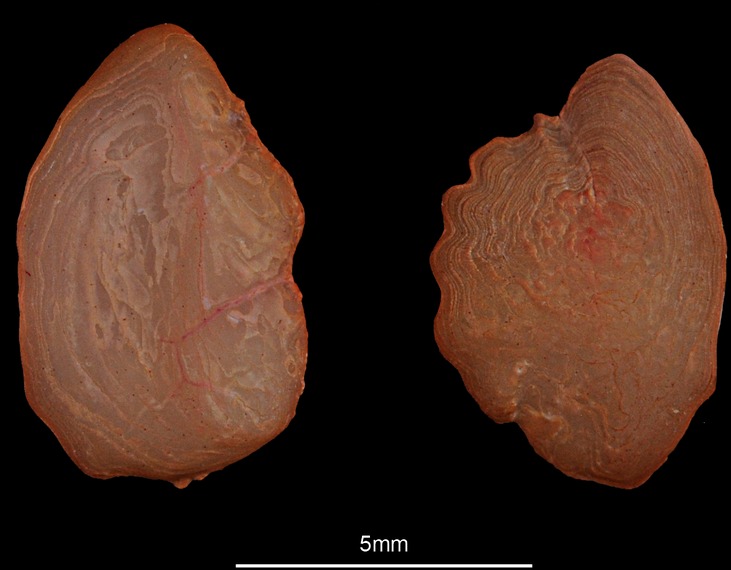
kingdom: Animalia
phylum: Chordata
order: Pleuronectiformes
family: Scophthalmidae
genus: Lepidorhombus
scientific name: Lepidorhombus whiffiagonis
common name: Megrim
